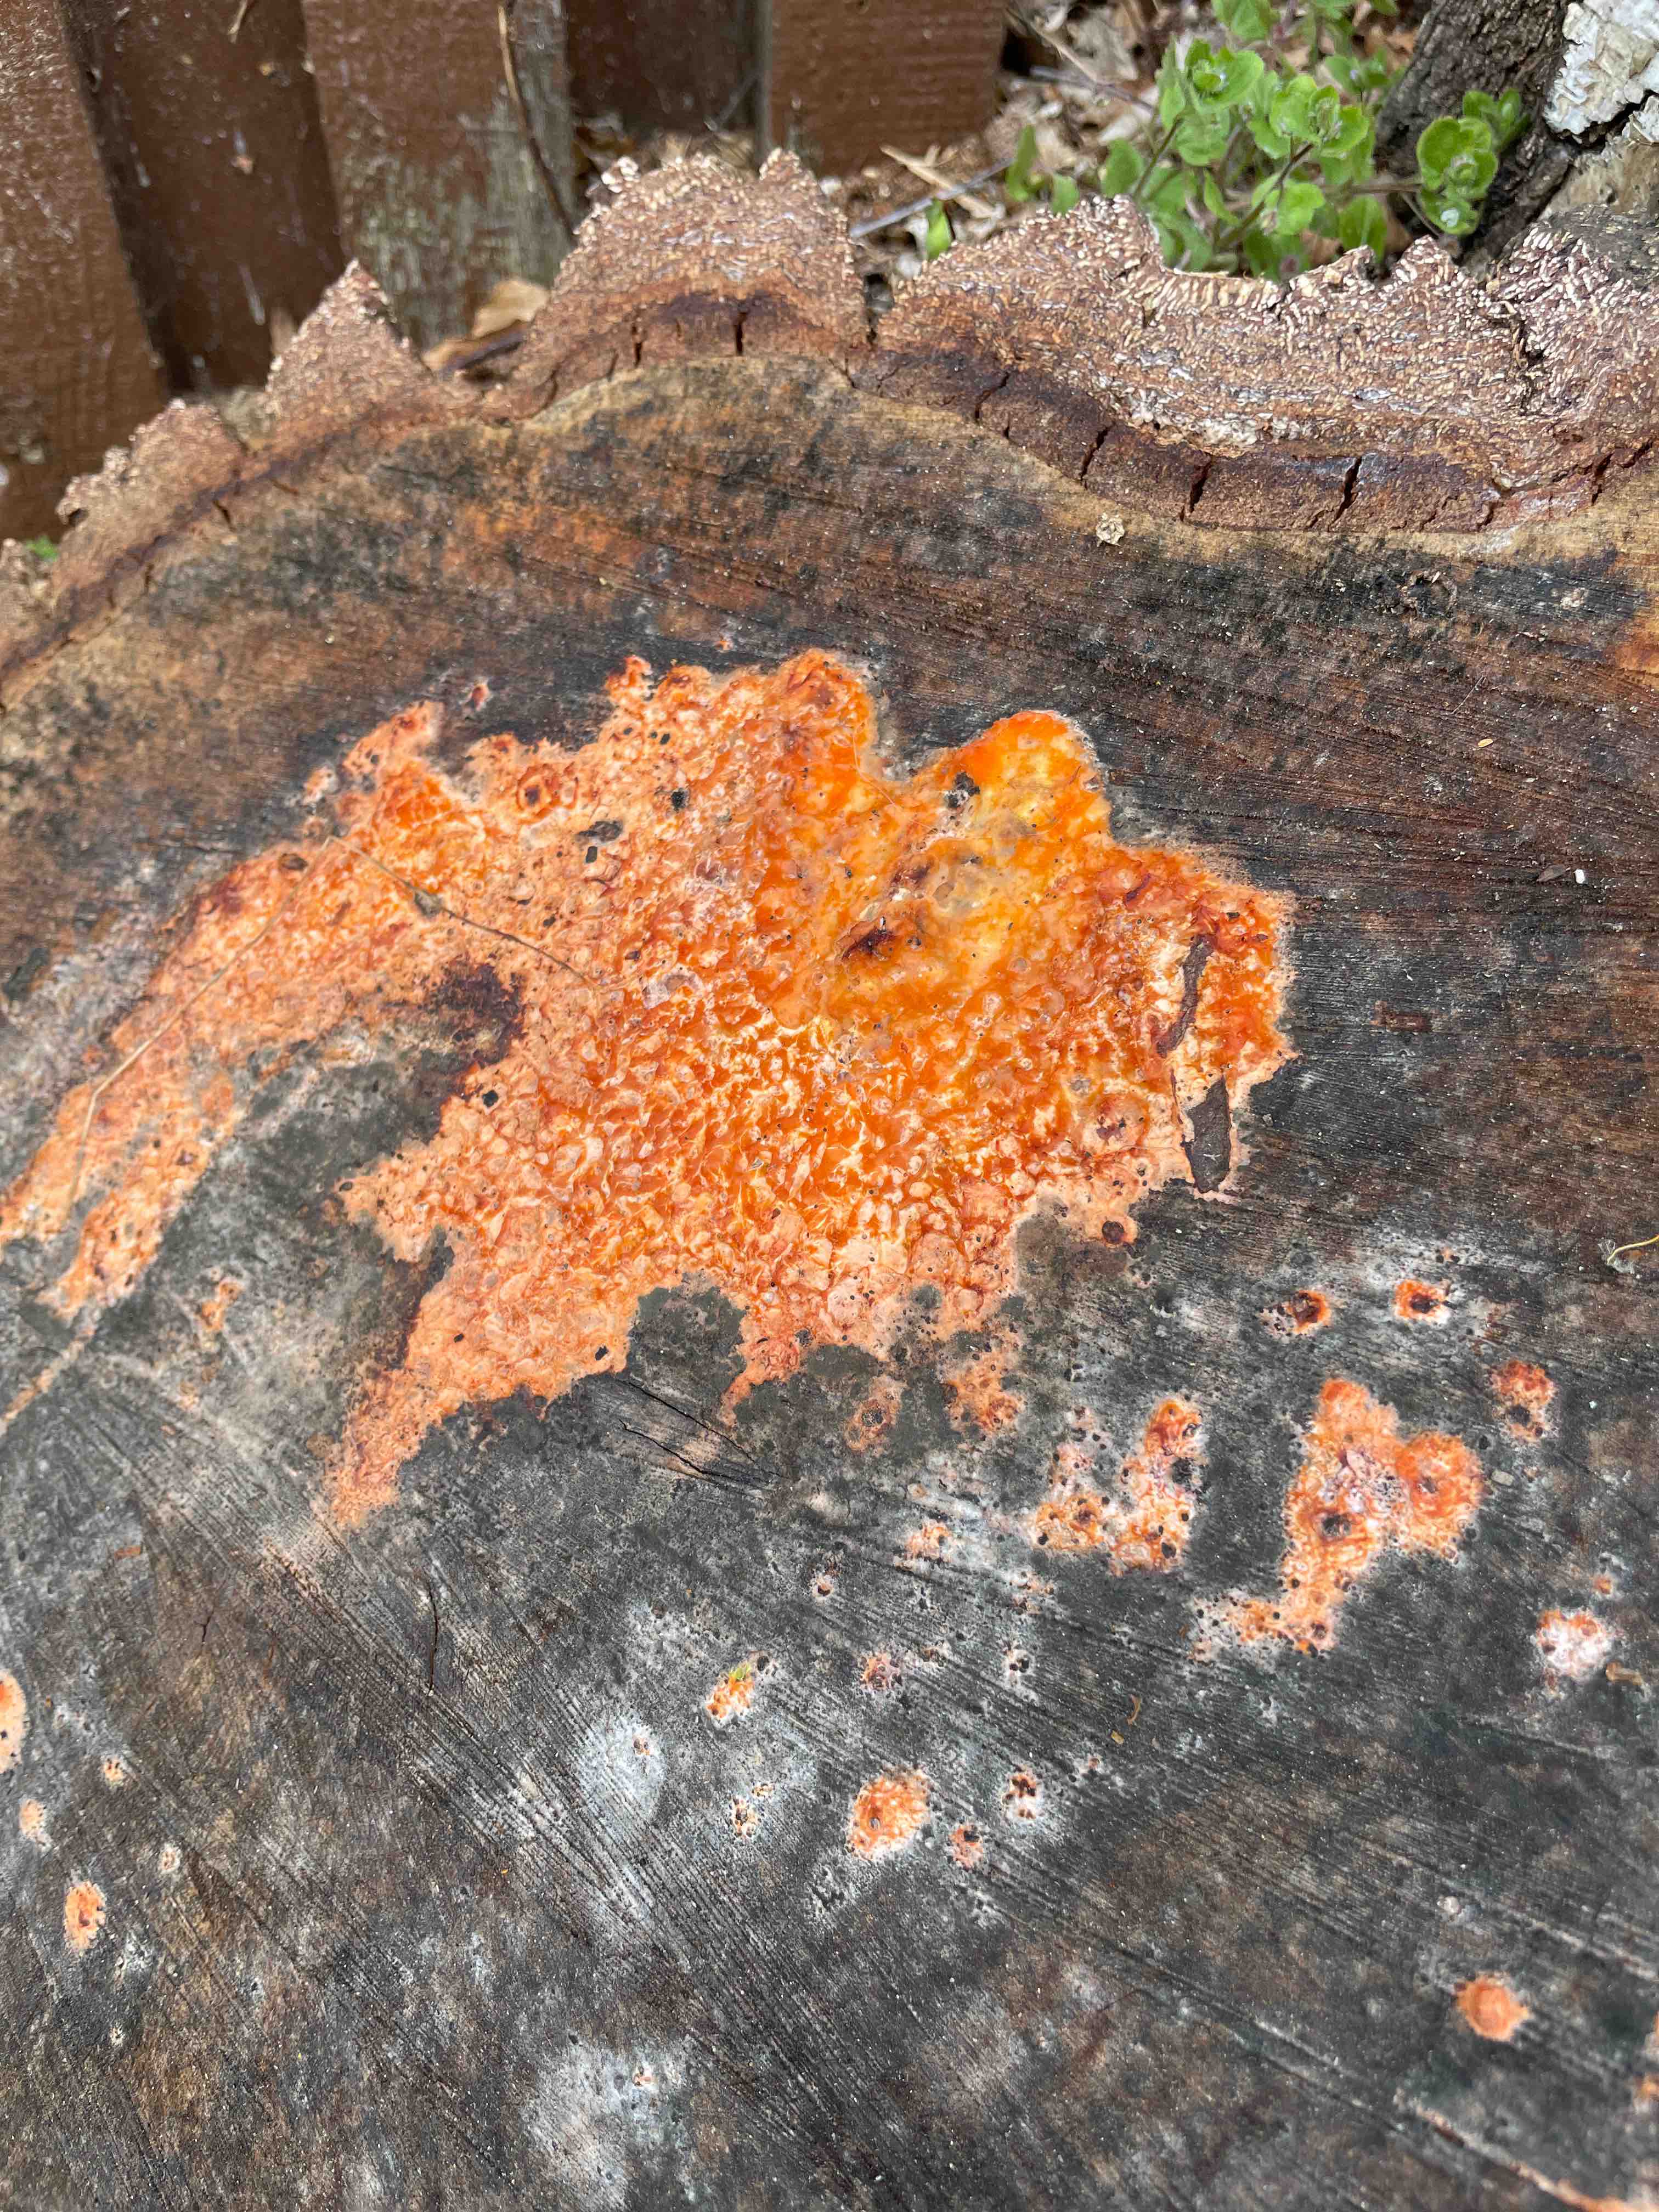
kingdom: Fungi
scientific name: Fungi
